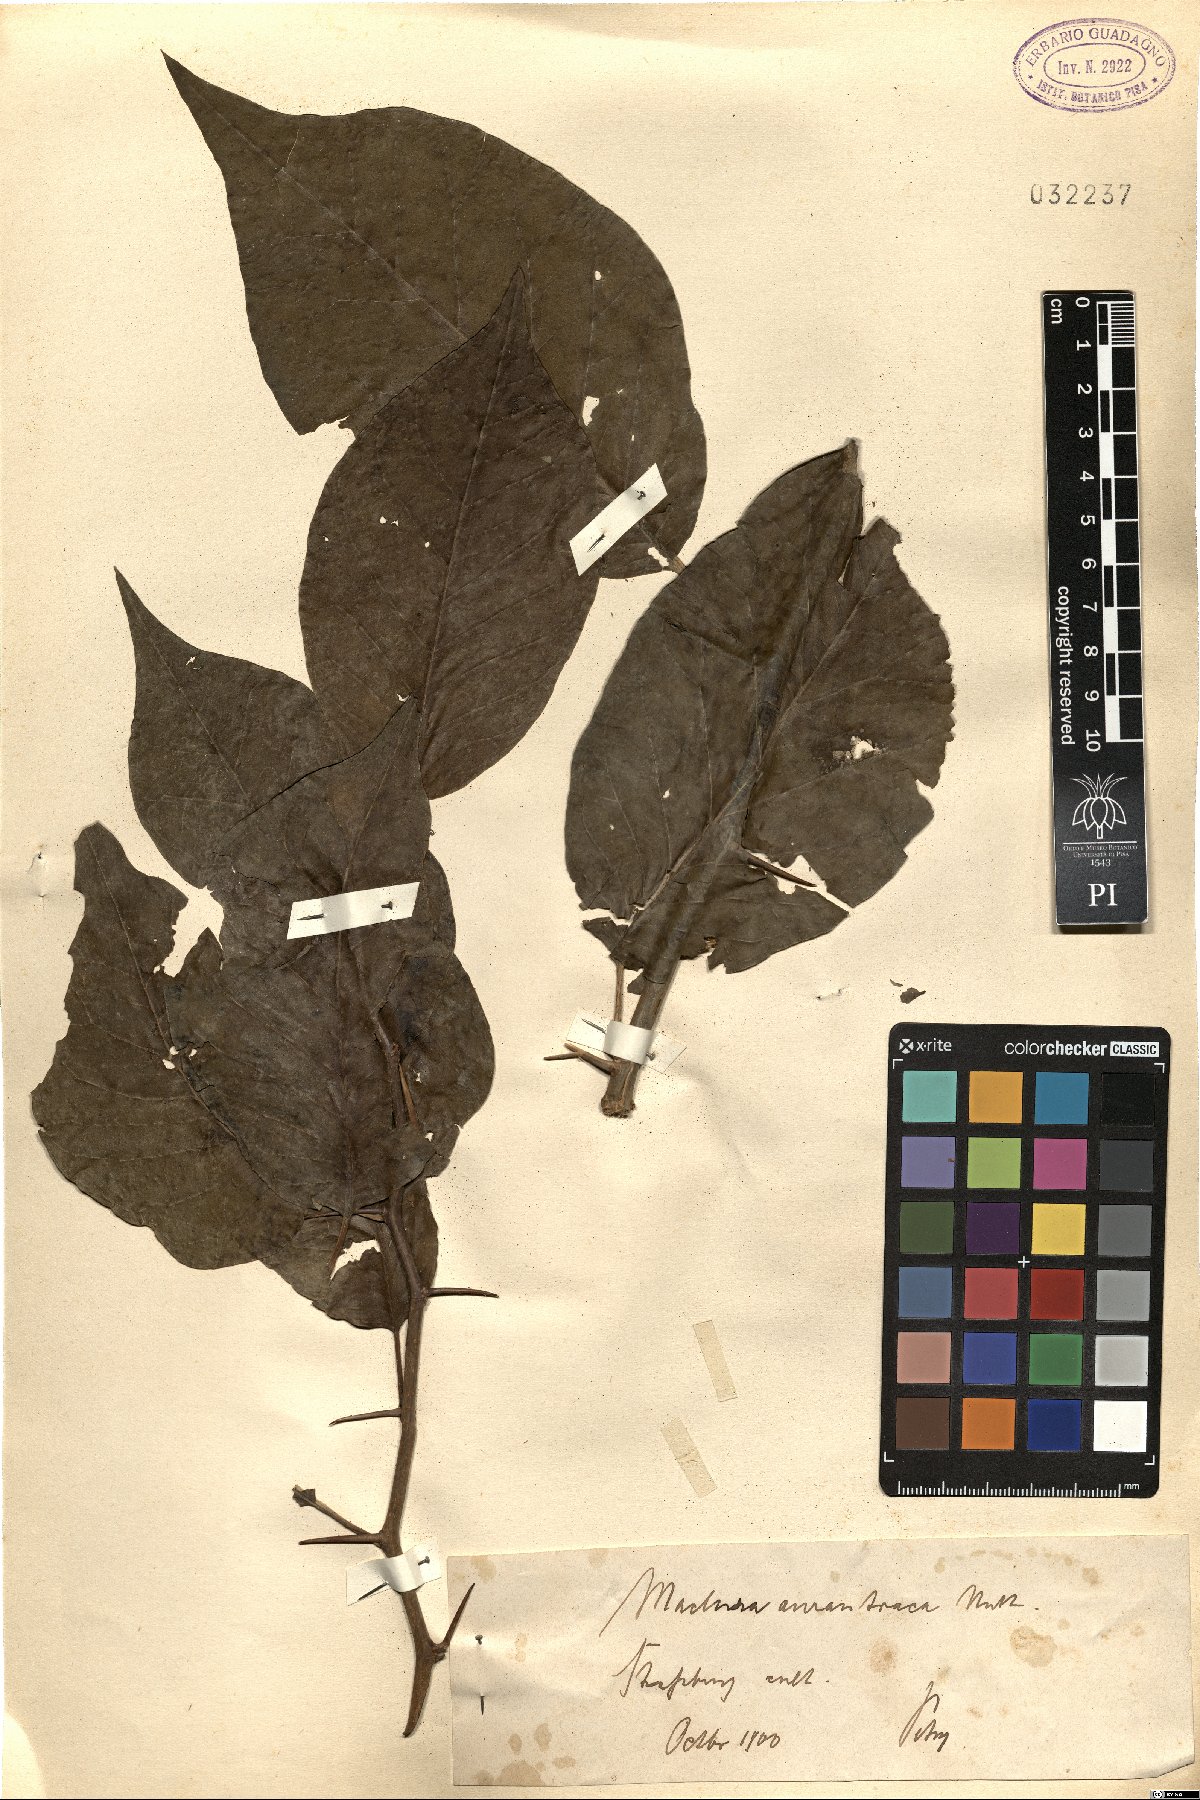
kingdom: Plantae
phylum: Tracheophyta
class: Magnoliopsida
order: Rosales
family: Moraceae
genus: Maclura
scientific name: Maclura pomifera
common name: Osage-orange
